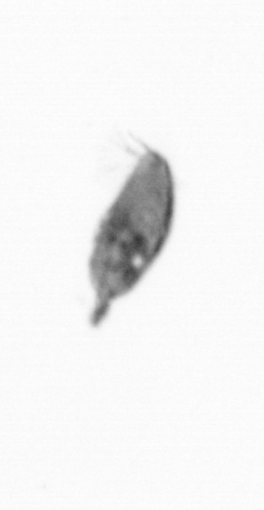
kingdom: Animalia
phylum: Arthropoda
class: Maxillopoda
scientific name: Maxillopoda
